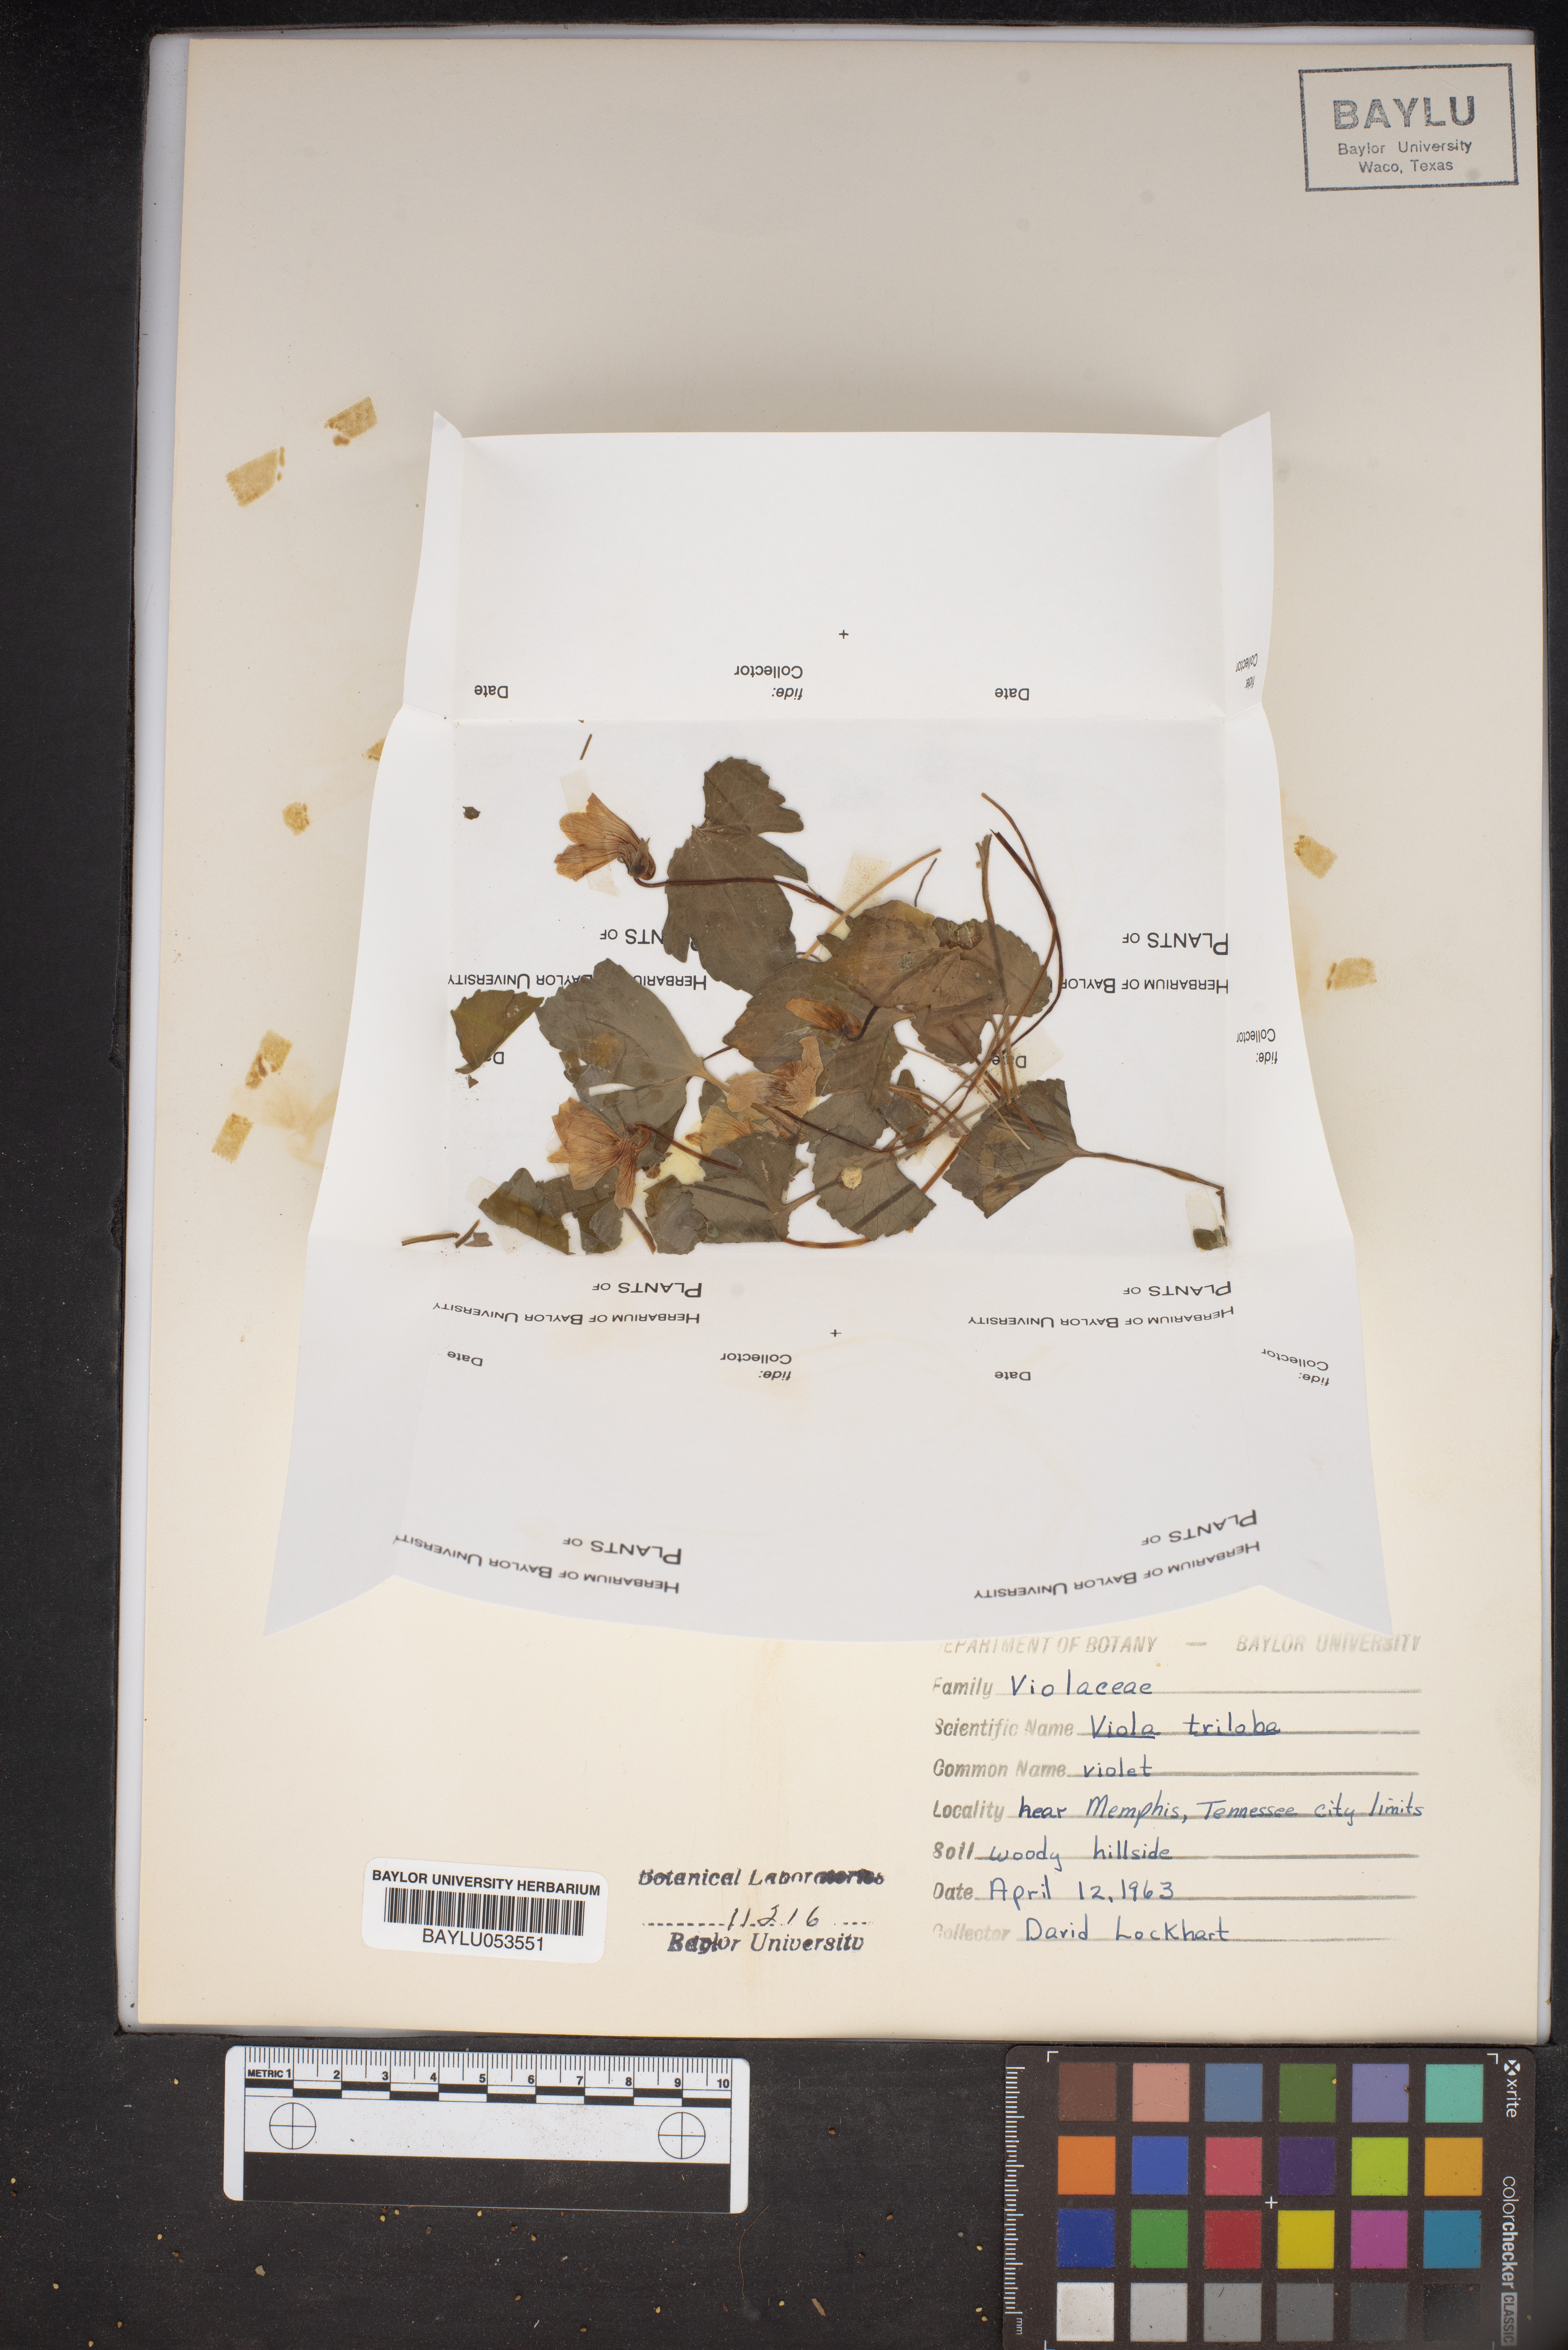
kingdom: Plantae
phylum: Tracheophyta
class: Magnoliopsida
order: Malpighiales
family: Violaceae
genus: Viola
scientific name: Viola palmata
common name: Early blue violet
